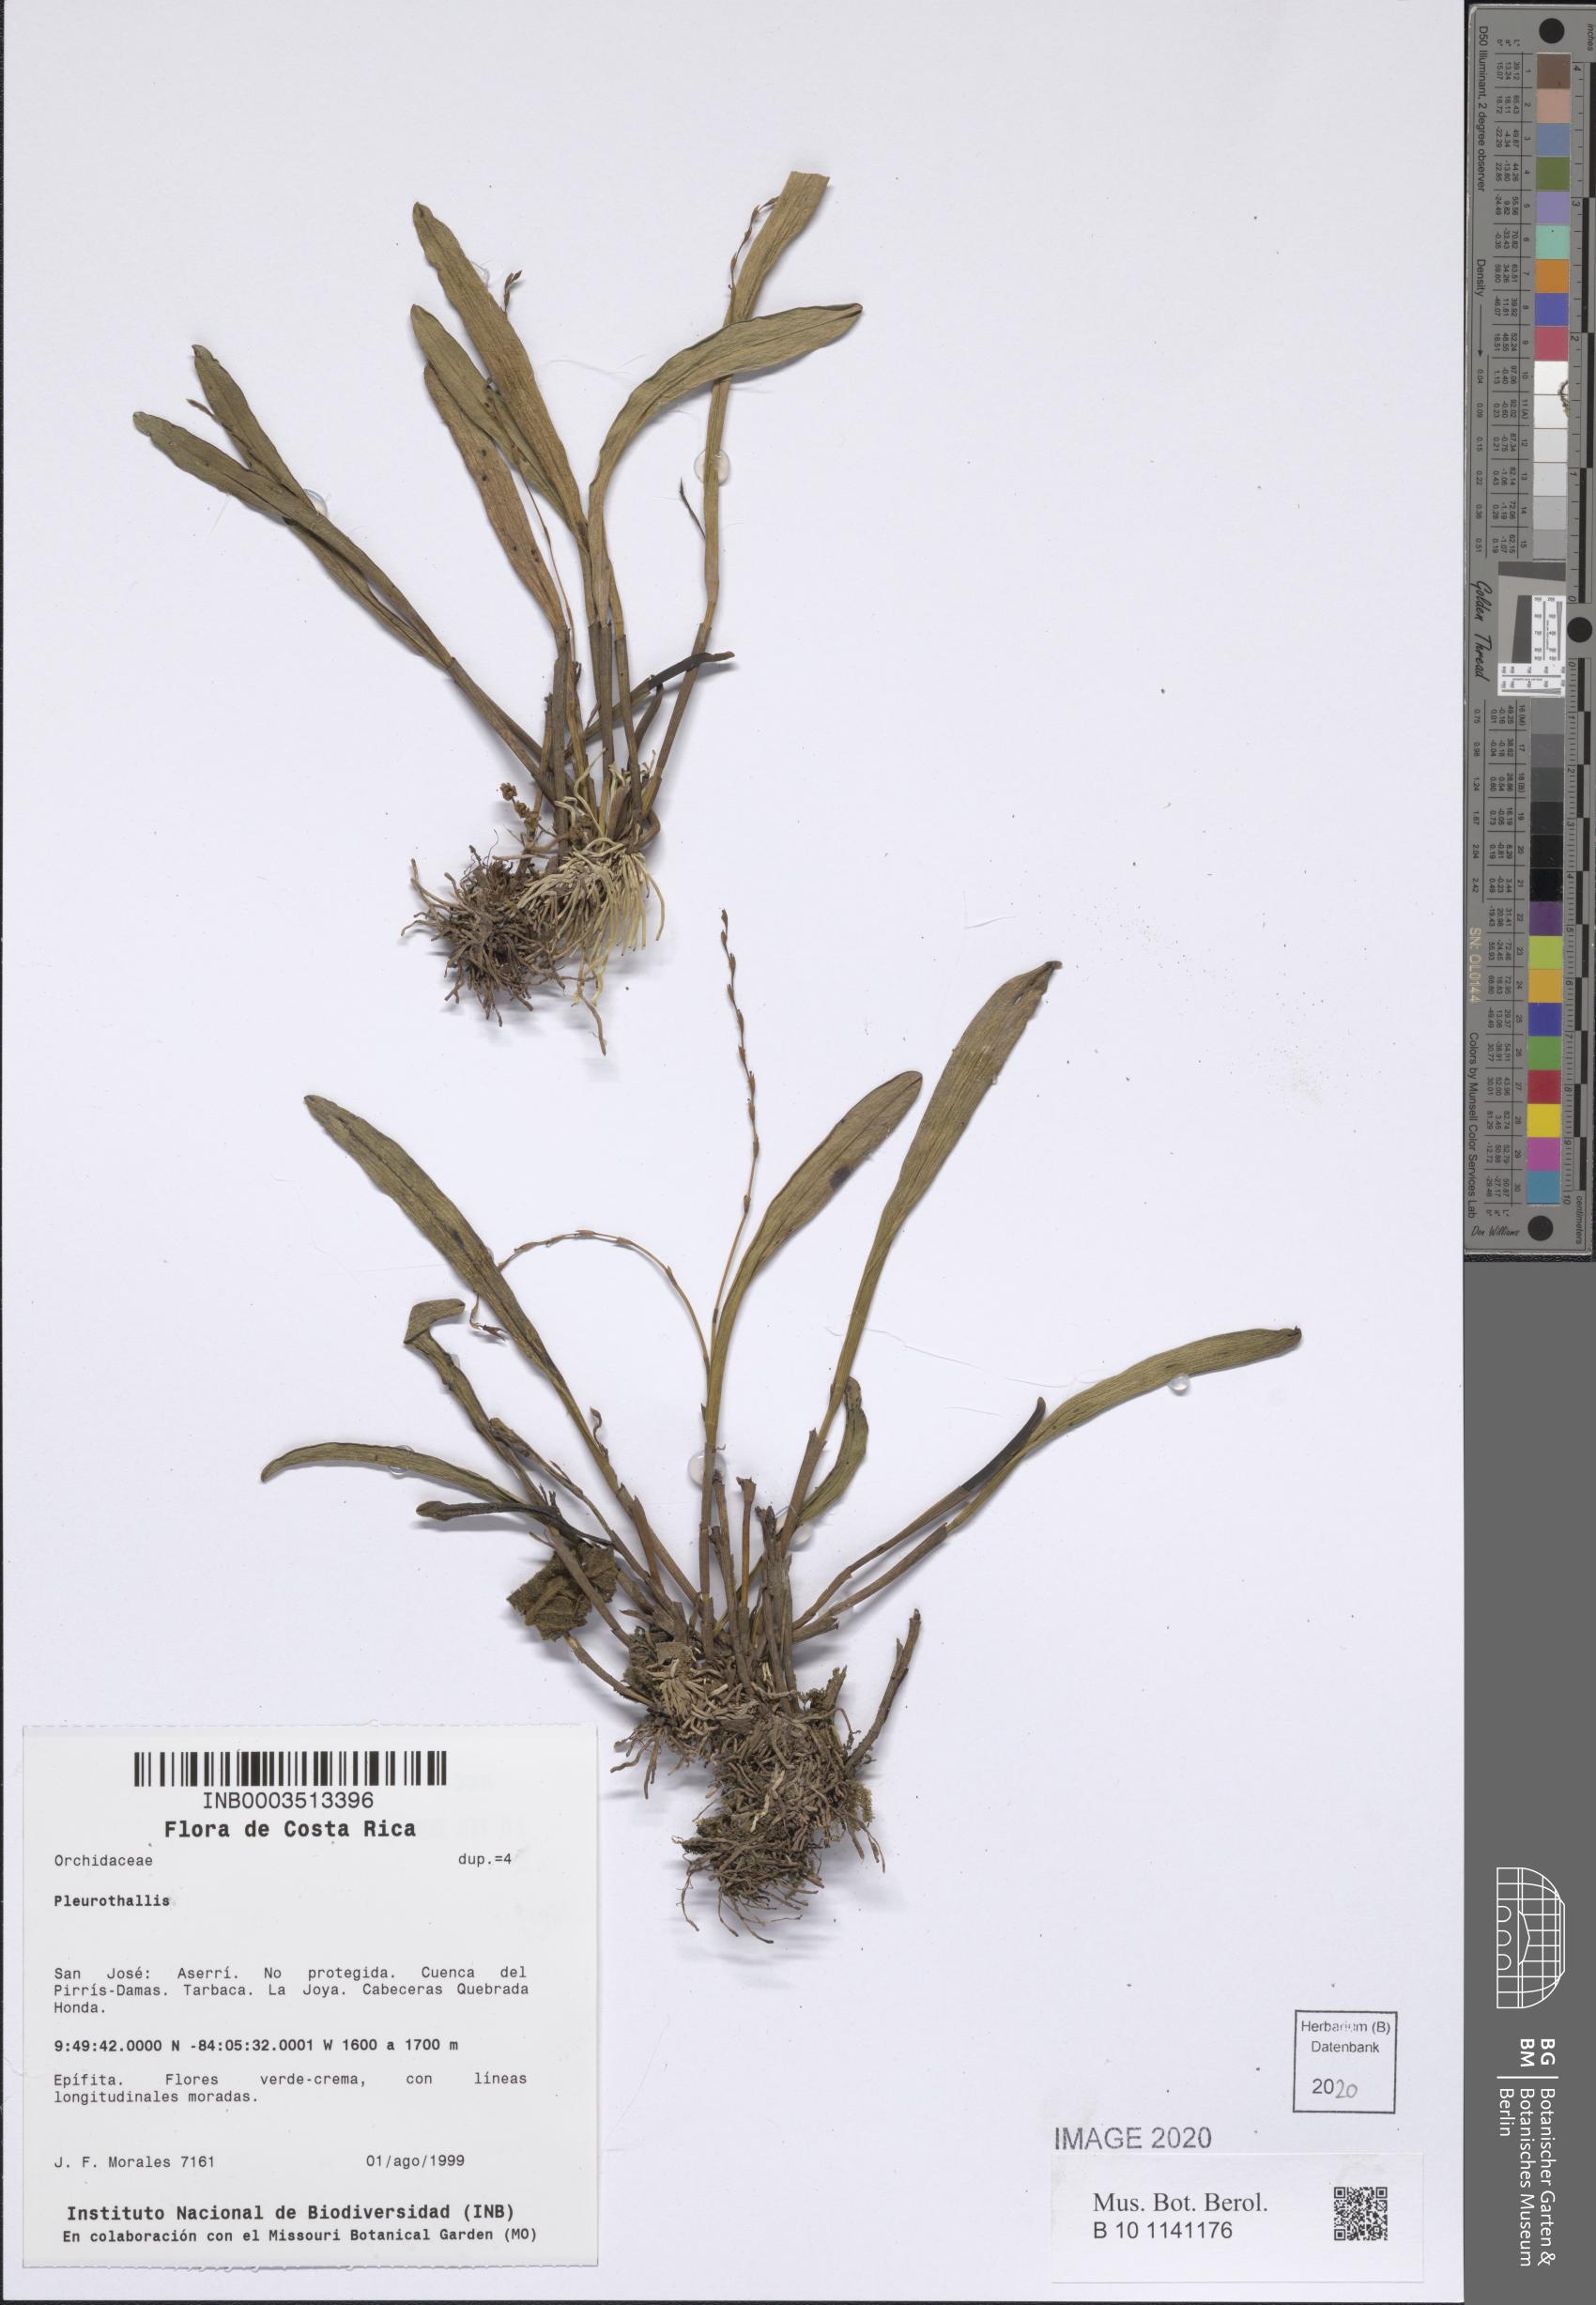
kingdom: Plantae
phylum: Tracheophyta
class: Liliopsida
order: Asparagales
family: Orchidaceae
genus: Pleurothallis
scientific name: Pleurothallis
